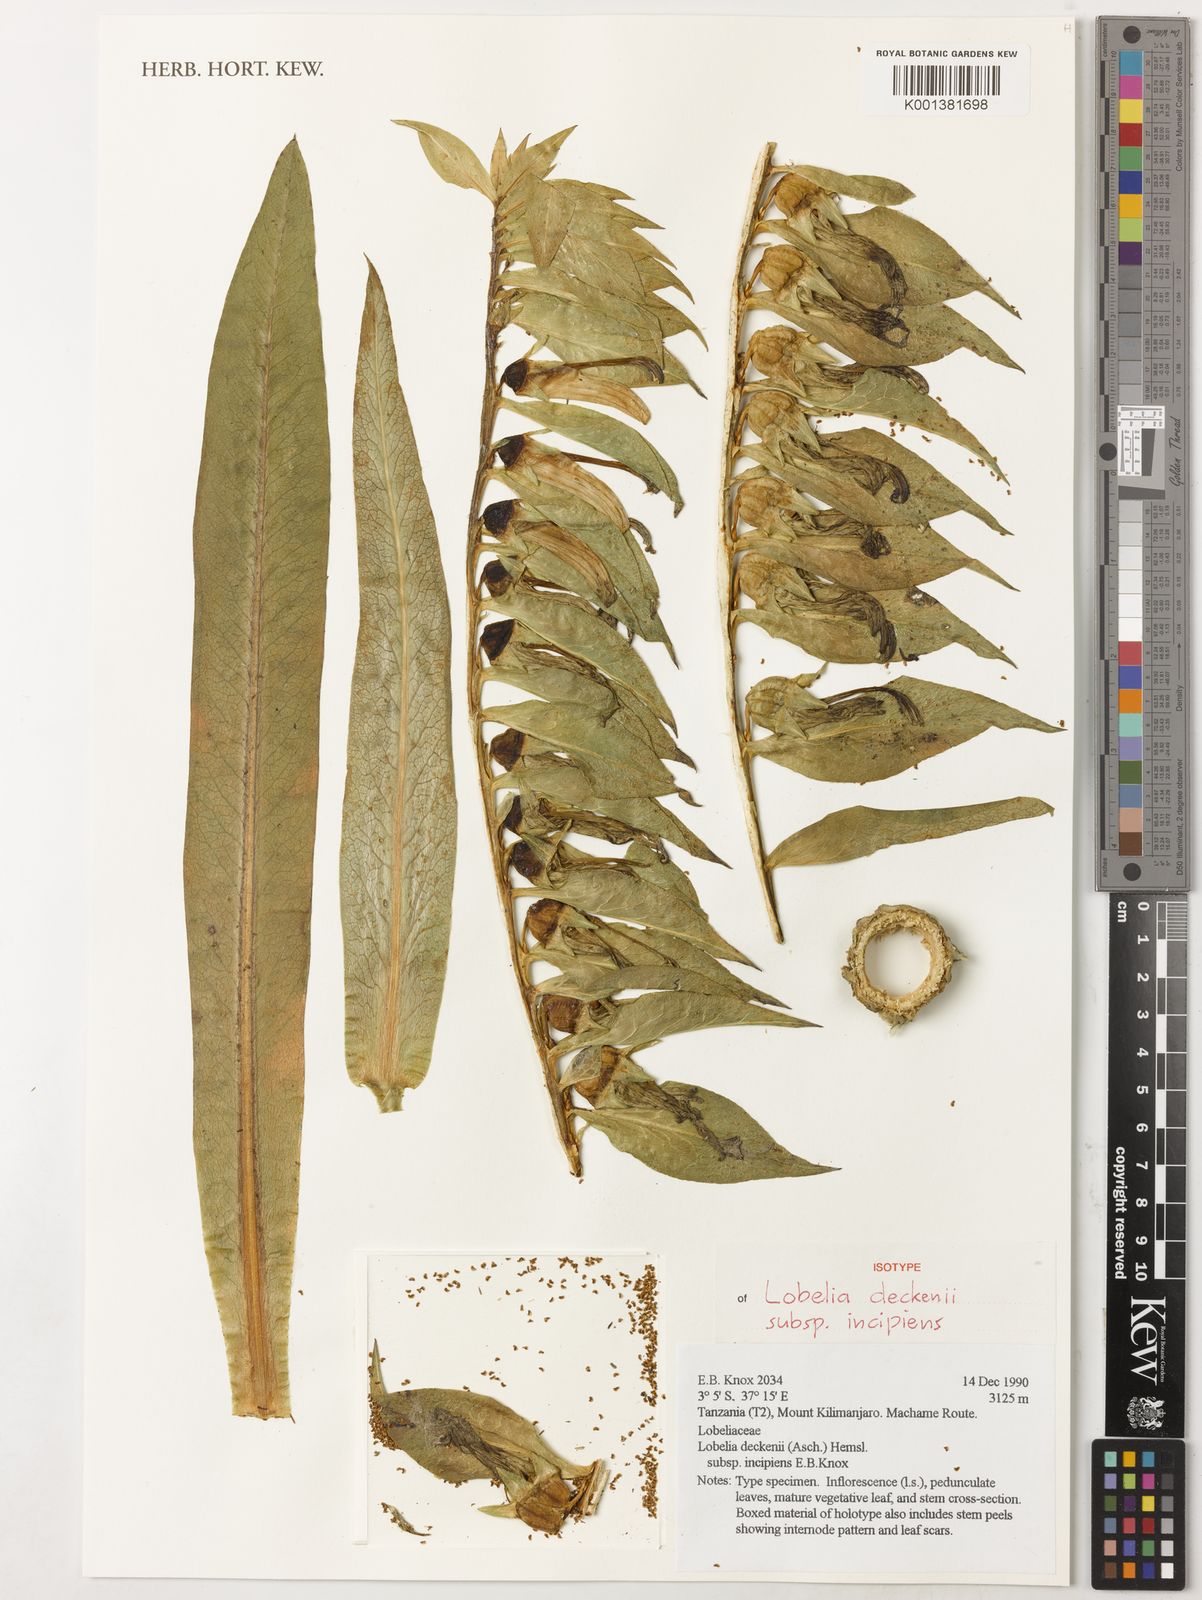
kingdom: Plantae
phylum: Tracheophyta
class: Magnoliopsida
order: Asterales
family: Campanulaceae
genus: Lobelia
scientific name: Lobelia deckenii
